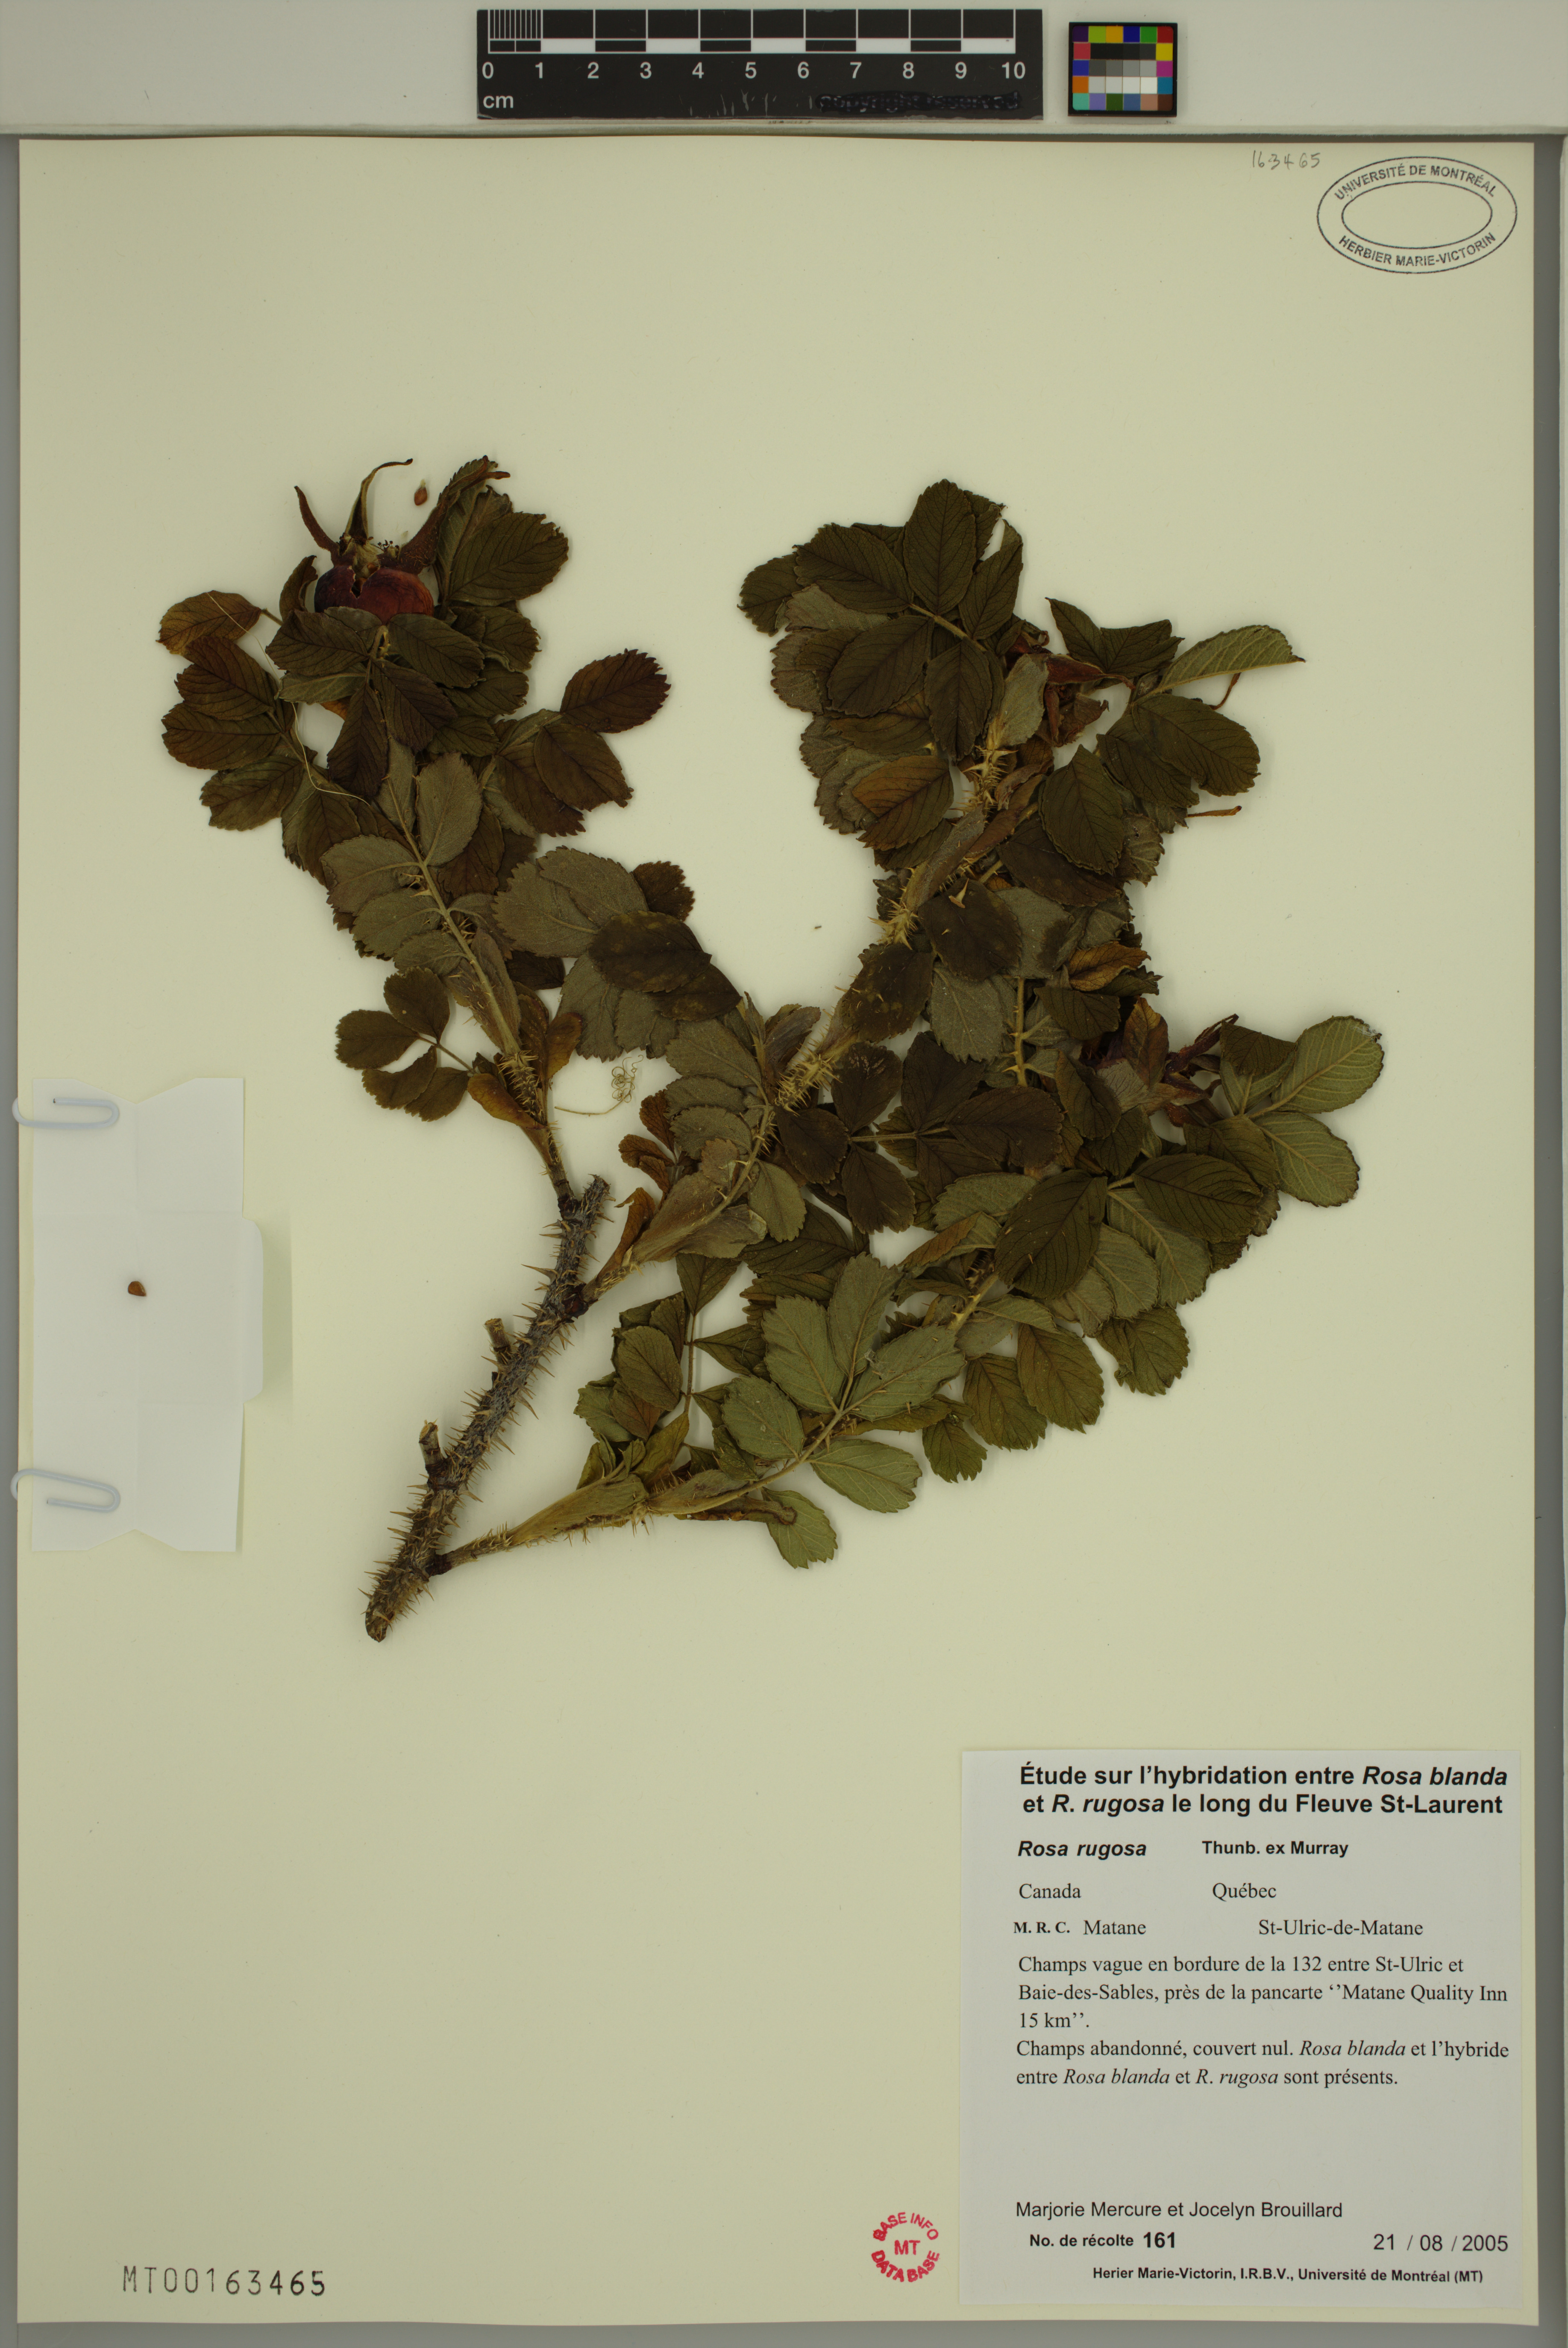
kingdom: Plantae
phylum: Tracheophyta
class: Magnoliopsida
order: Rosales
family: Rosaceae
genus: Rosa
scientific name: Rosa rugosa
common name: Japanese rose
